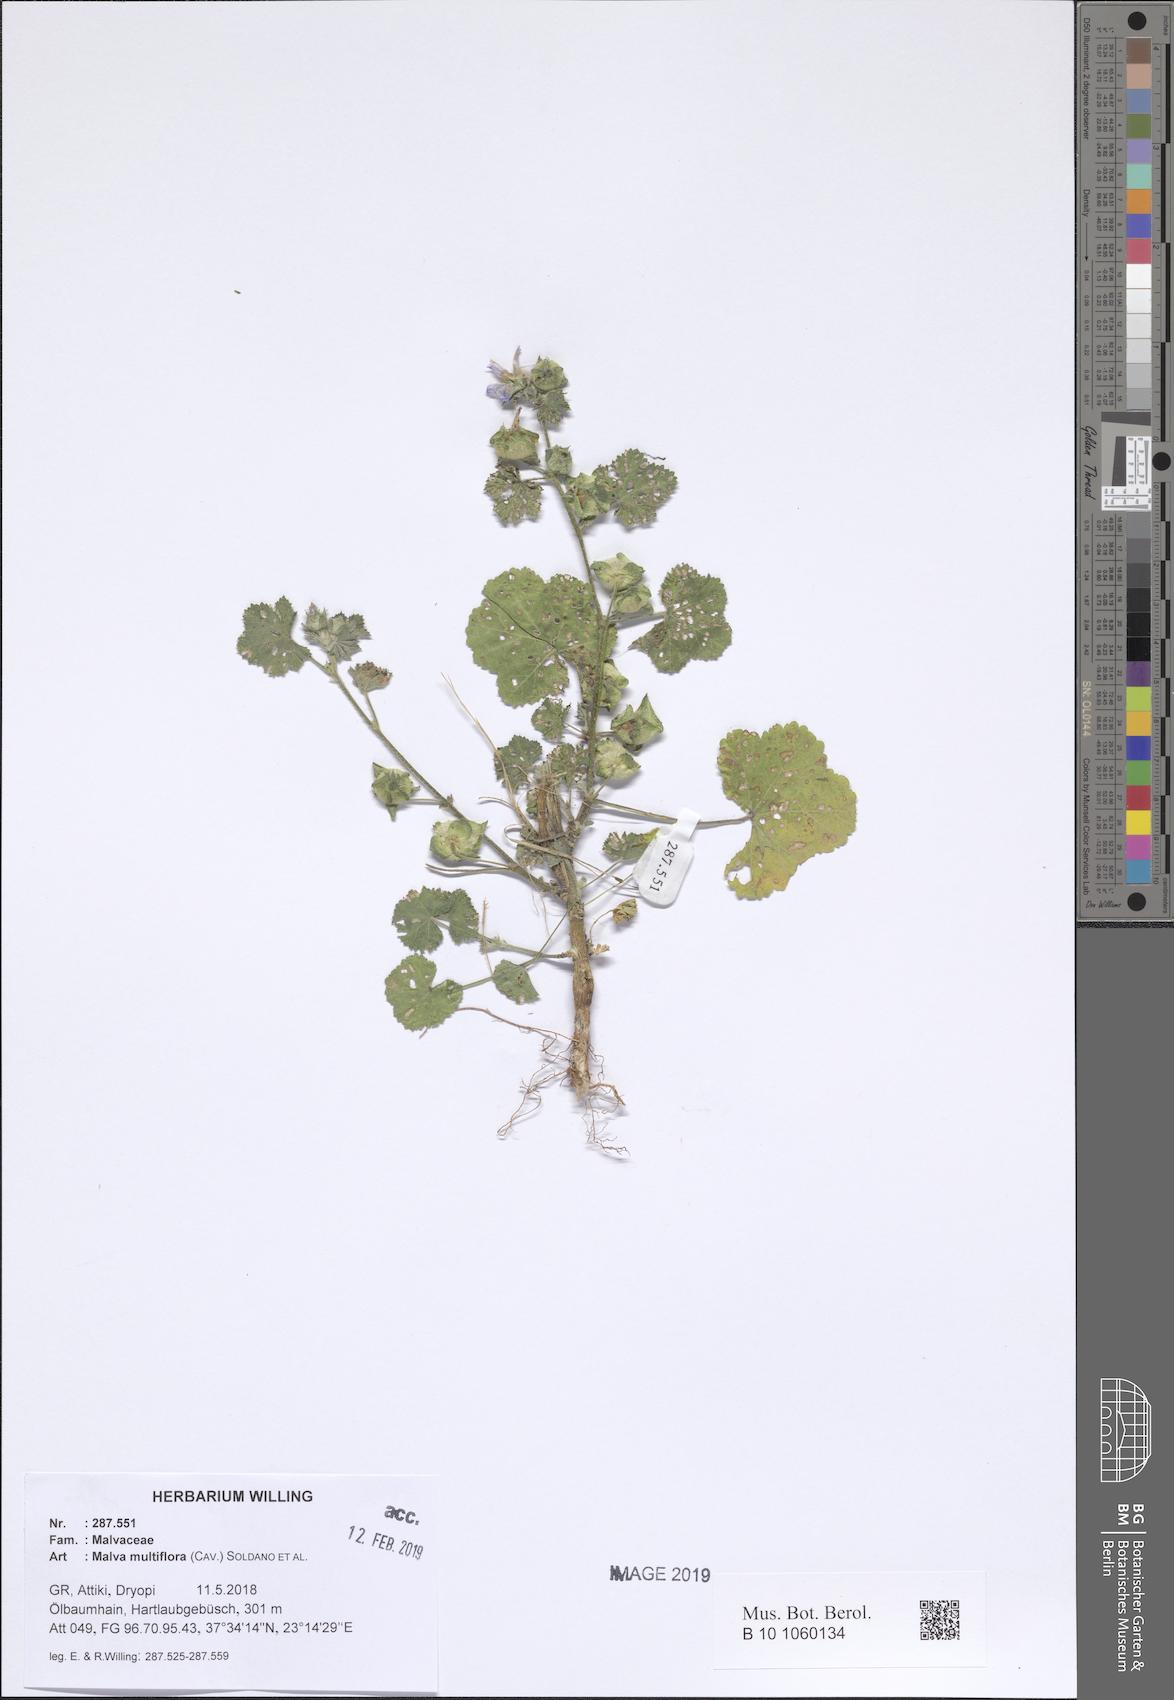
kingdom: Plantae
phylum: Tracheophyta
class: Magnoliopsida
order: Malvales
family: Malvaceae
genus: Malva
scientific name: Malva multiflora
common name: Cheeseweed
